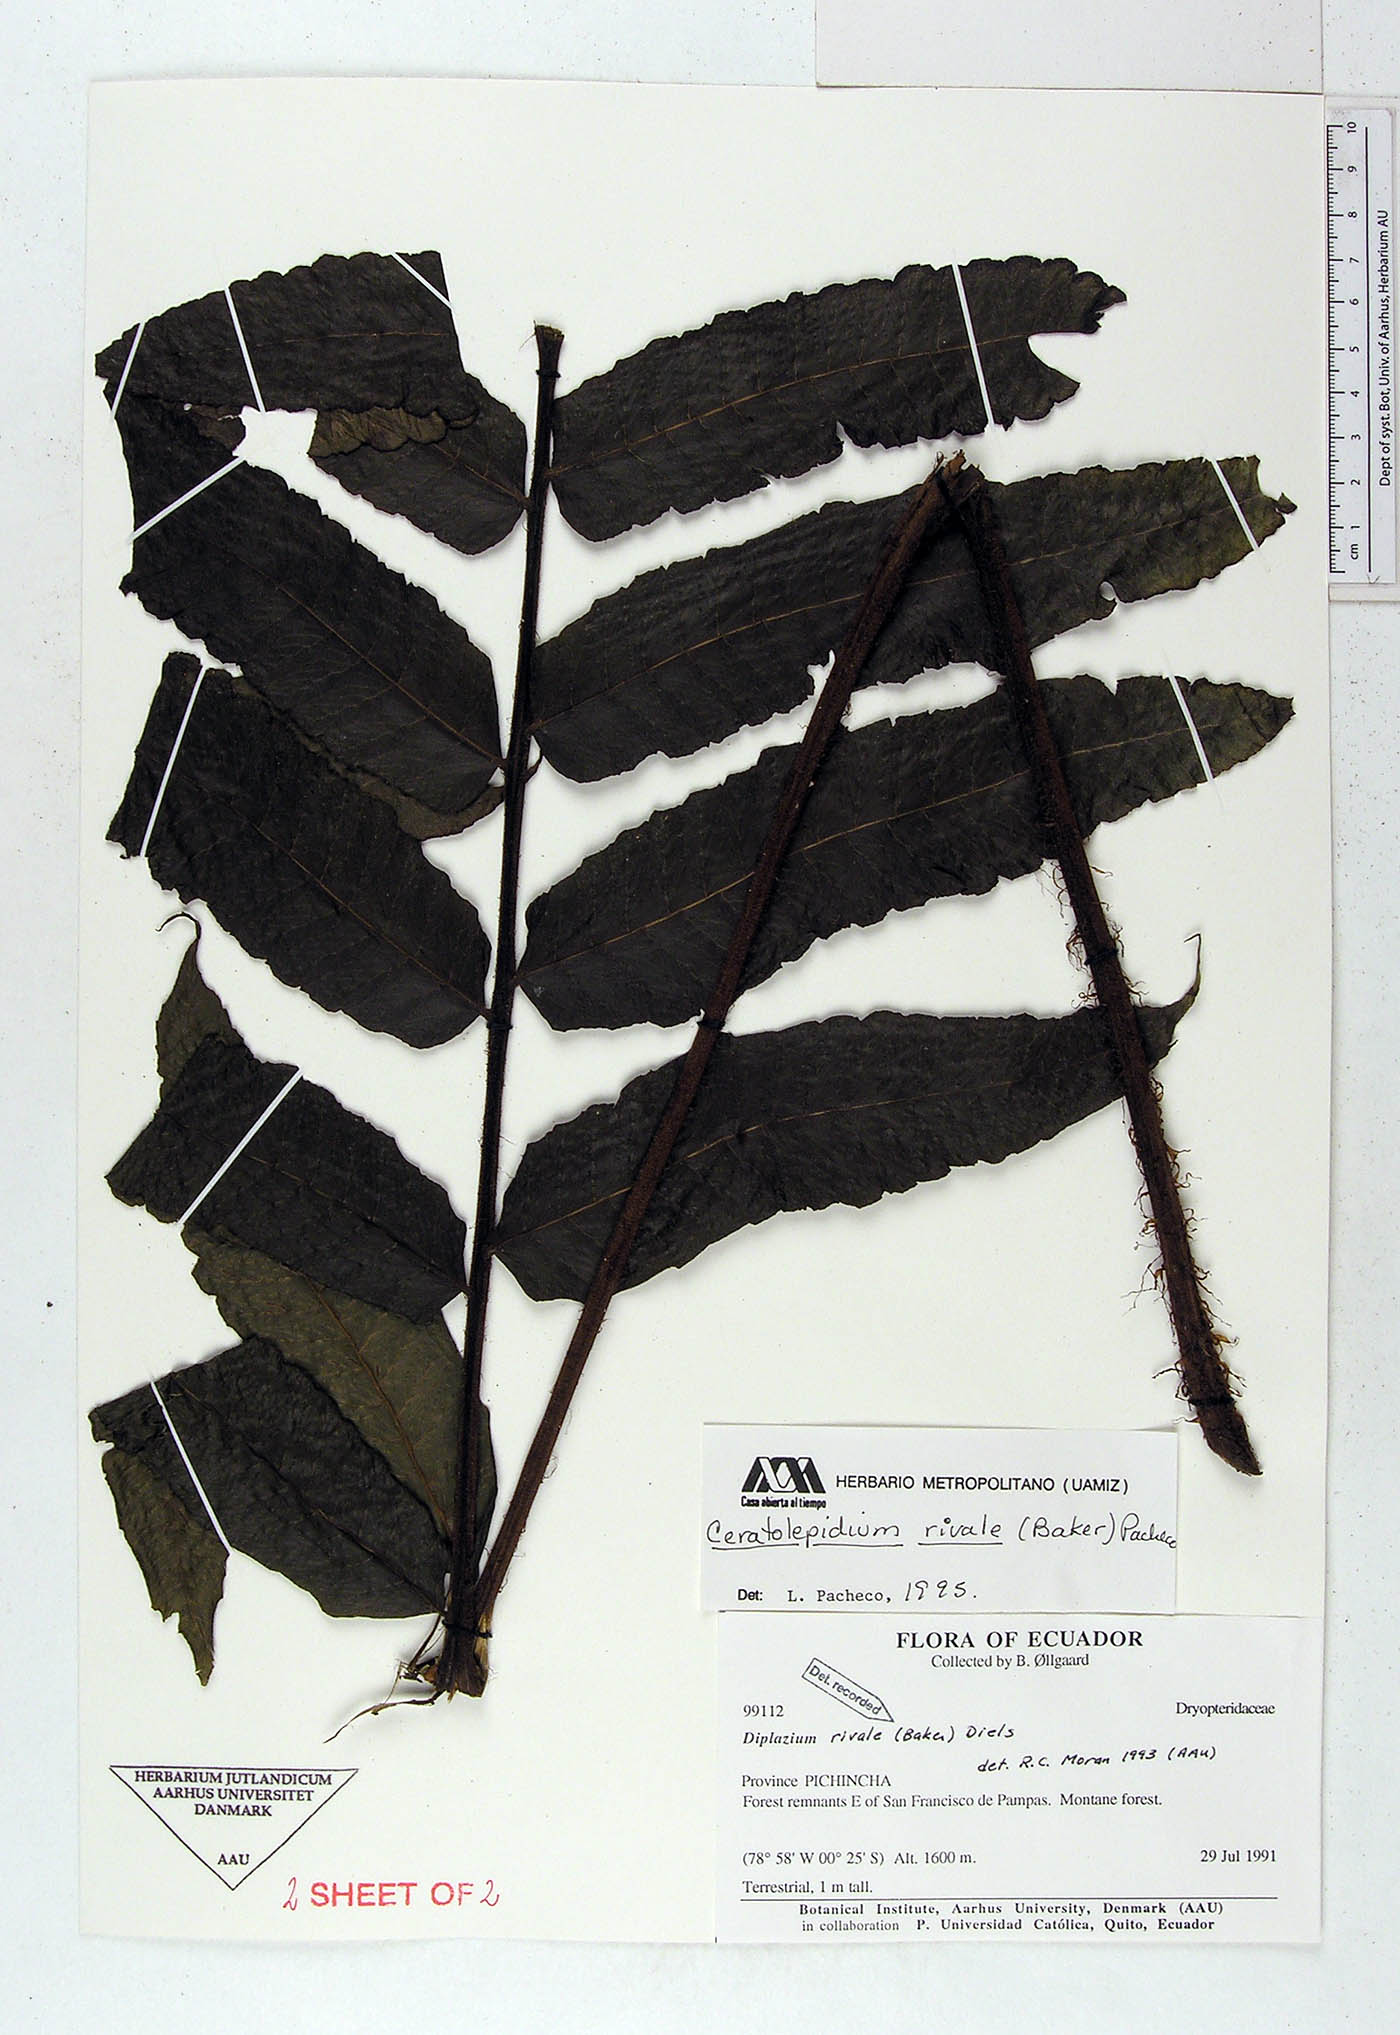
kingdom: Plantae
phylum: Tracheophyta
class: Polypodiopsida
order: Polypodiales
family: Athyriaceae
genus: Diplazium
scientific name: Diplazium rivale
